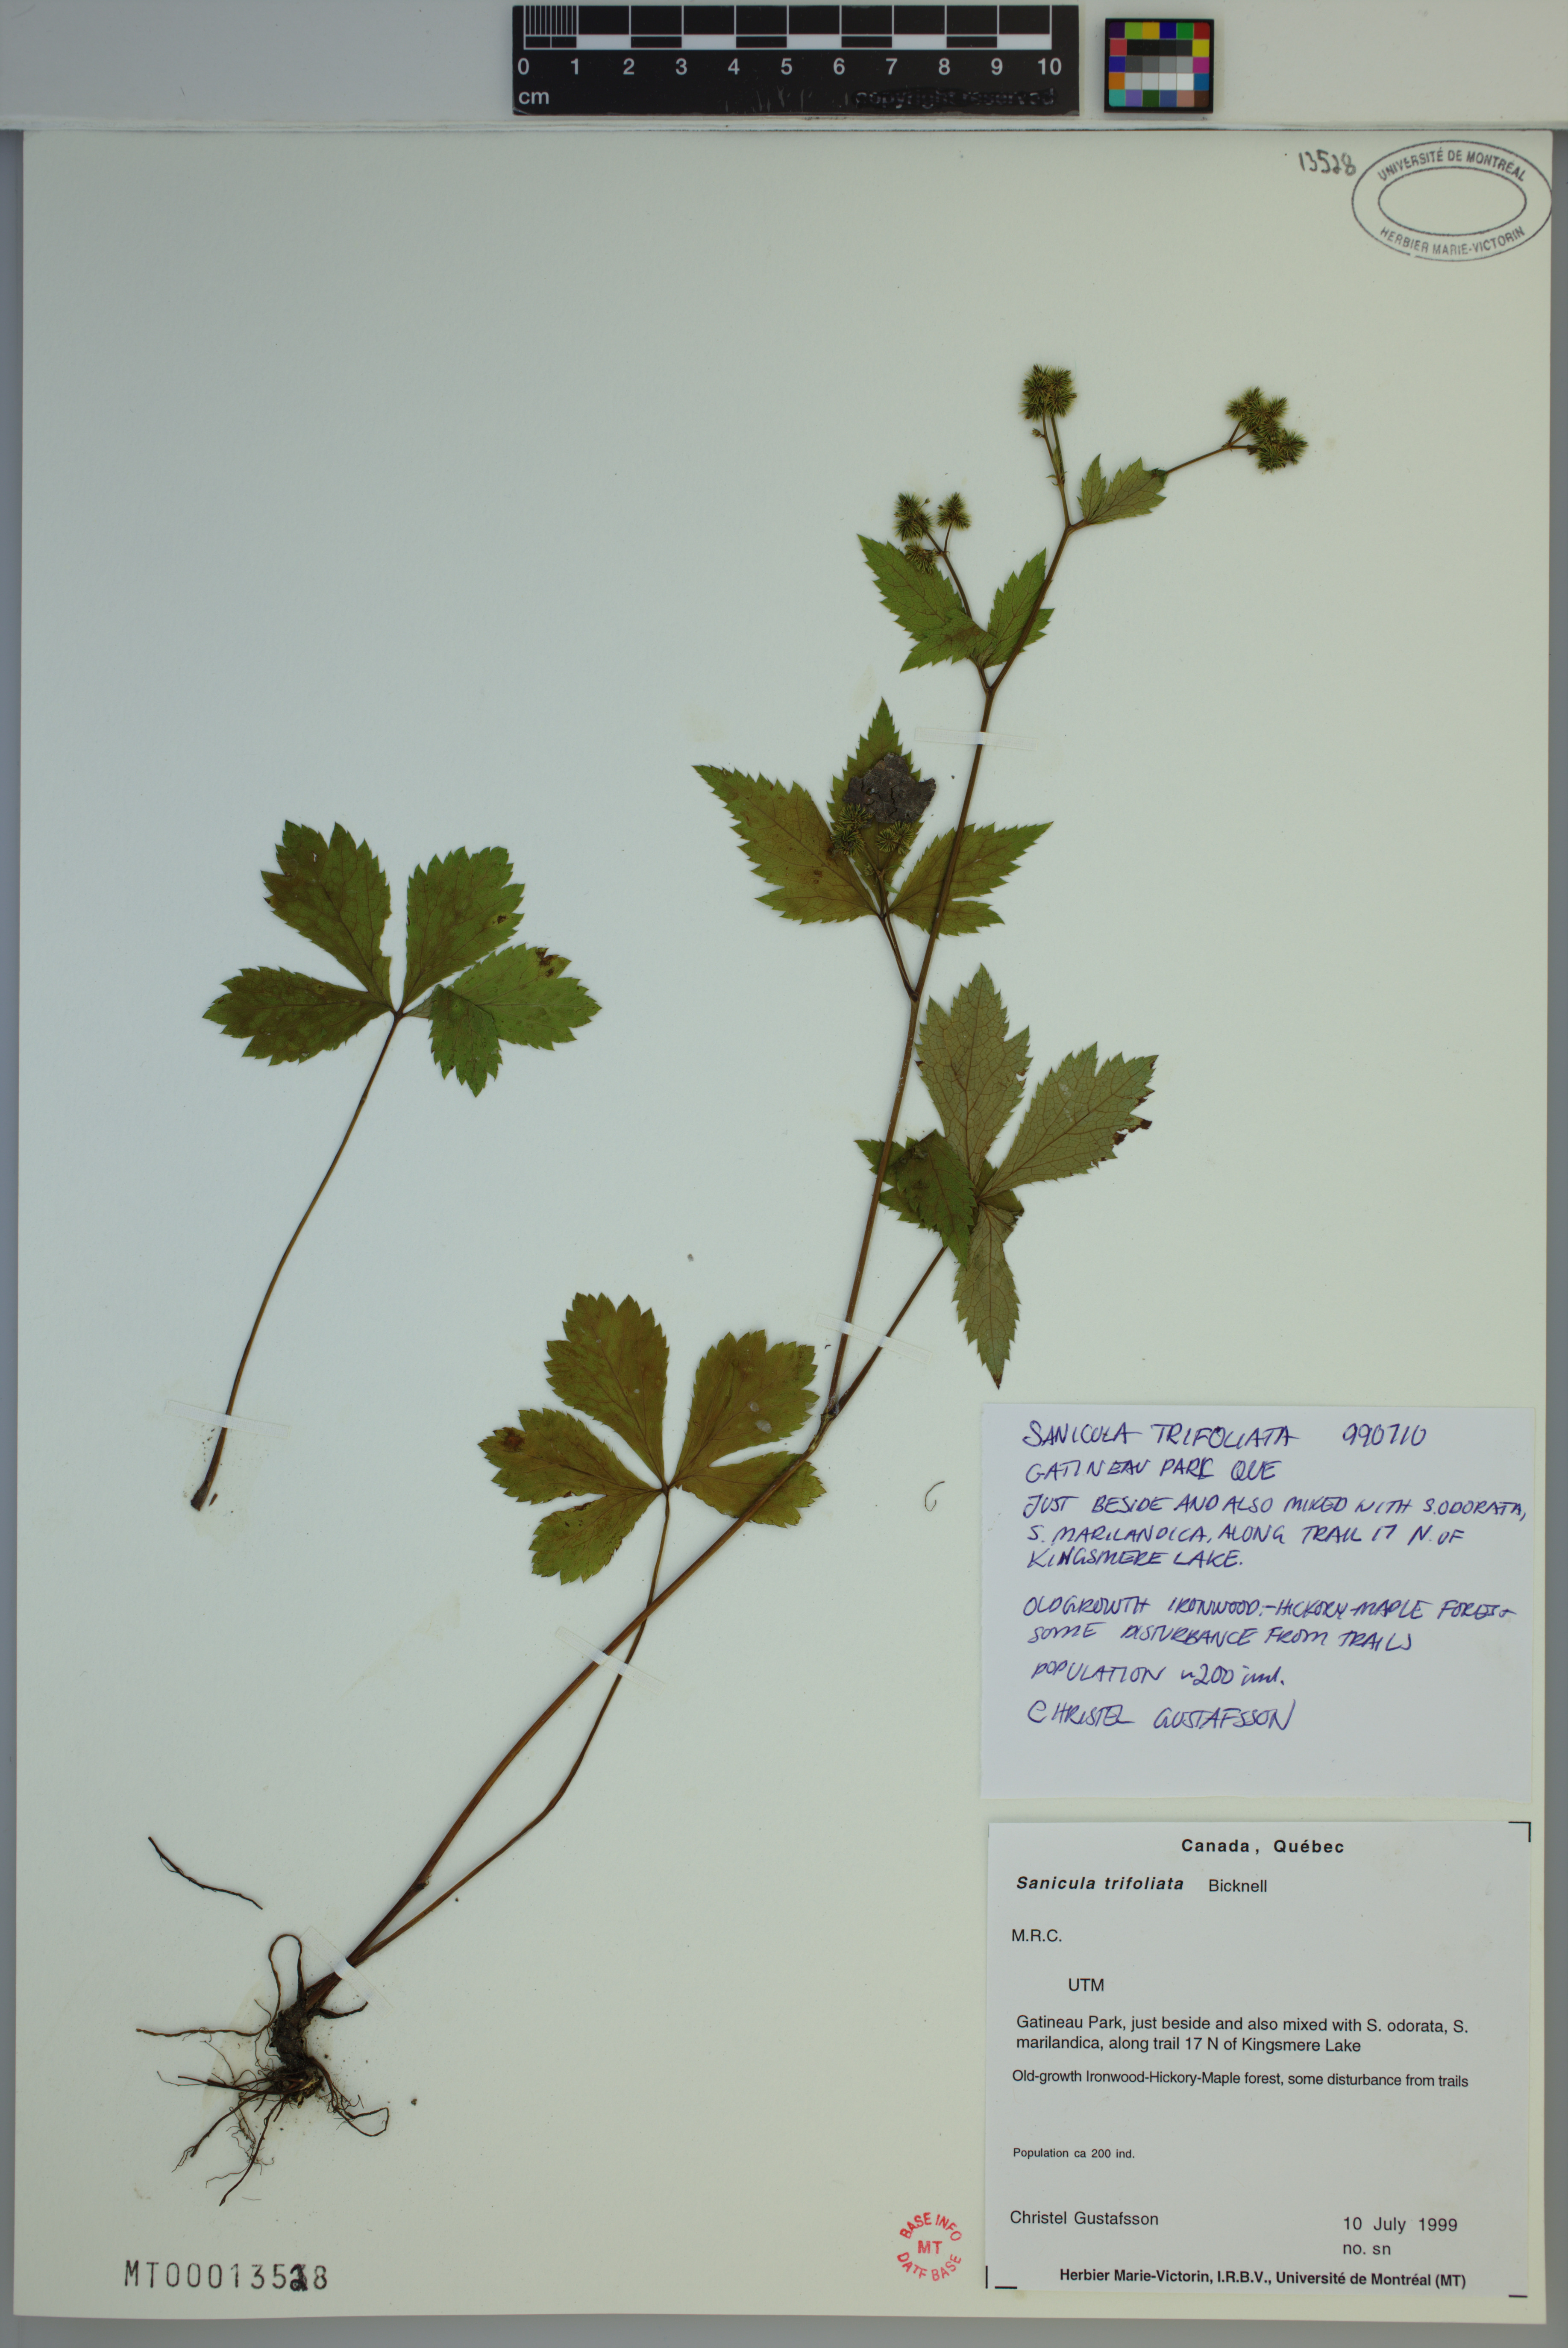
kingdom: Plantae
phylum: Tracheophyta
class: Magnoliopsida
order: Apiales
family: Apiaceae
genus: Sanicula
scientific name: Sanicula trifoliata
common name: Beaked sanicle
